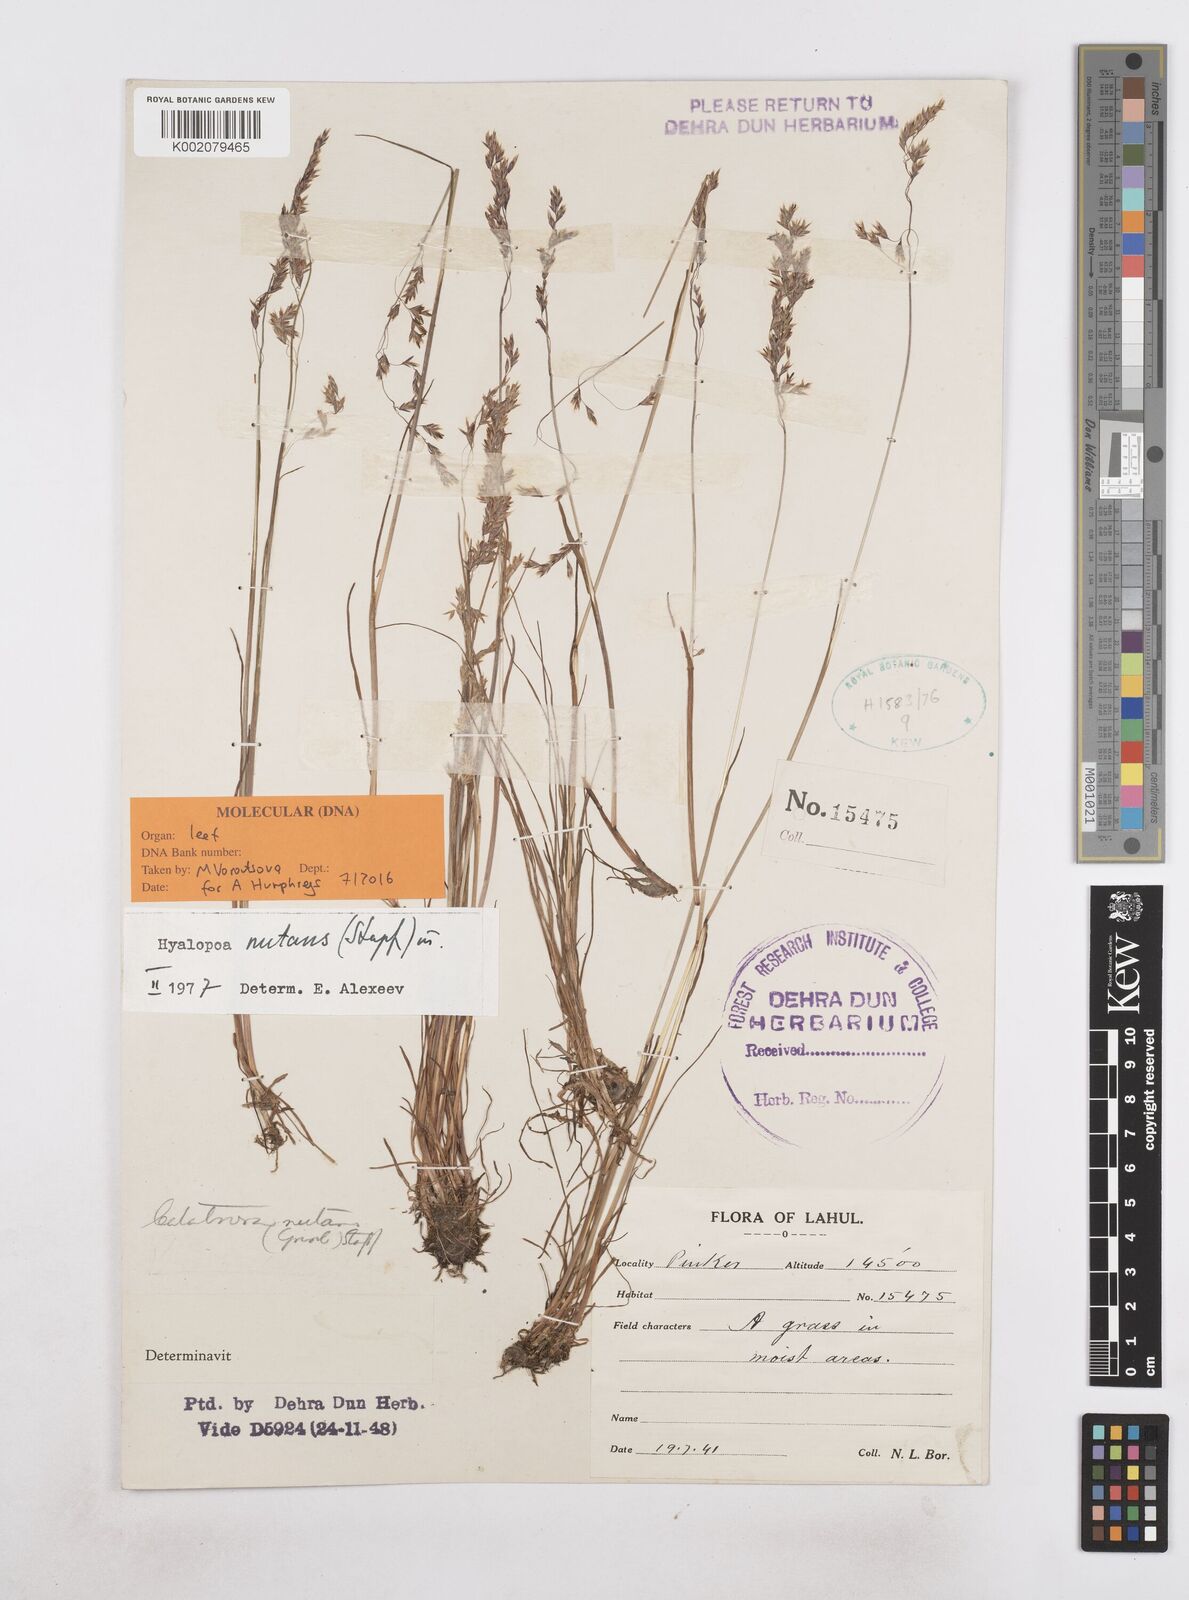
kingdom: Plantae
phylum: Tracheophyta
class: Liliopsida
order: Poales
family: Poaceae
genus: Hyalopoa
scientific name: Hyalopoa nutans
